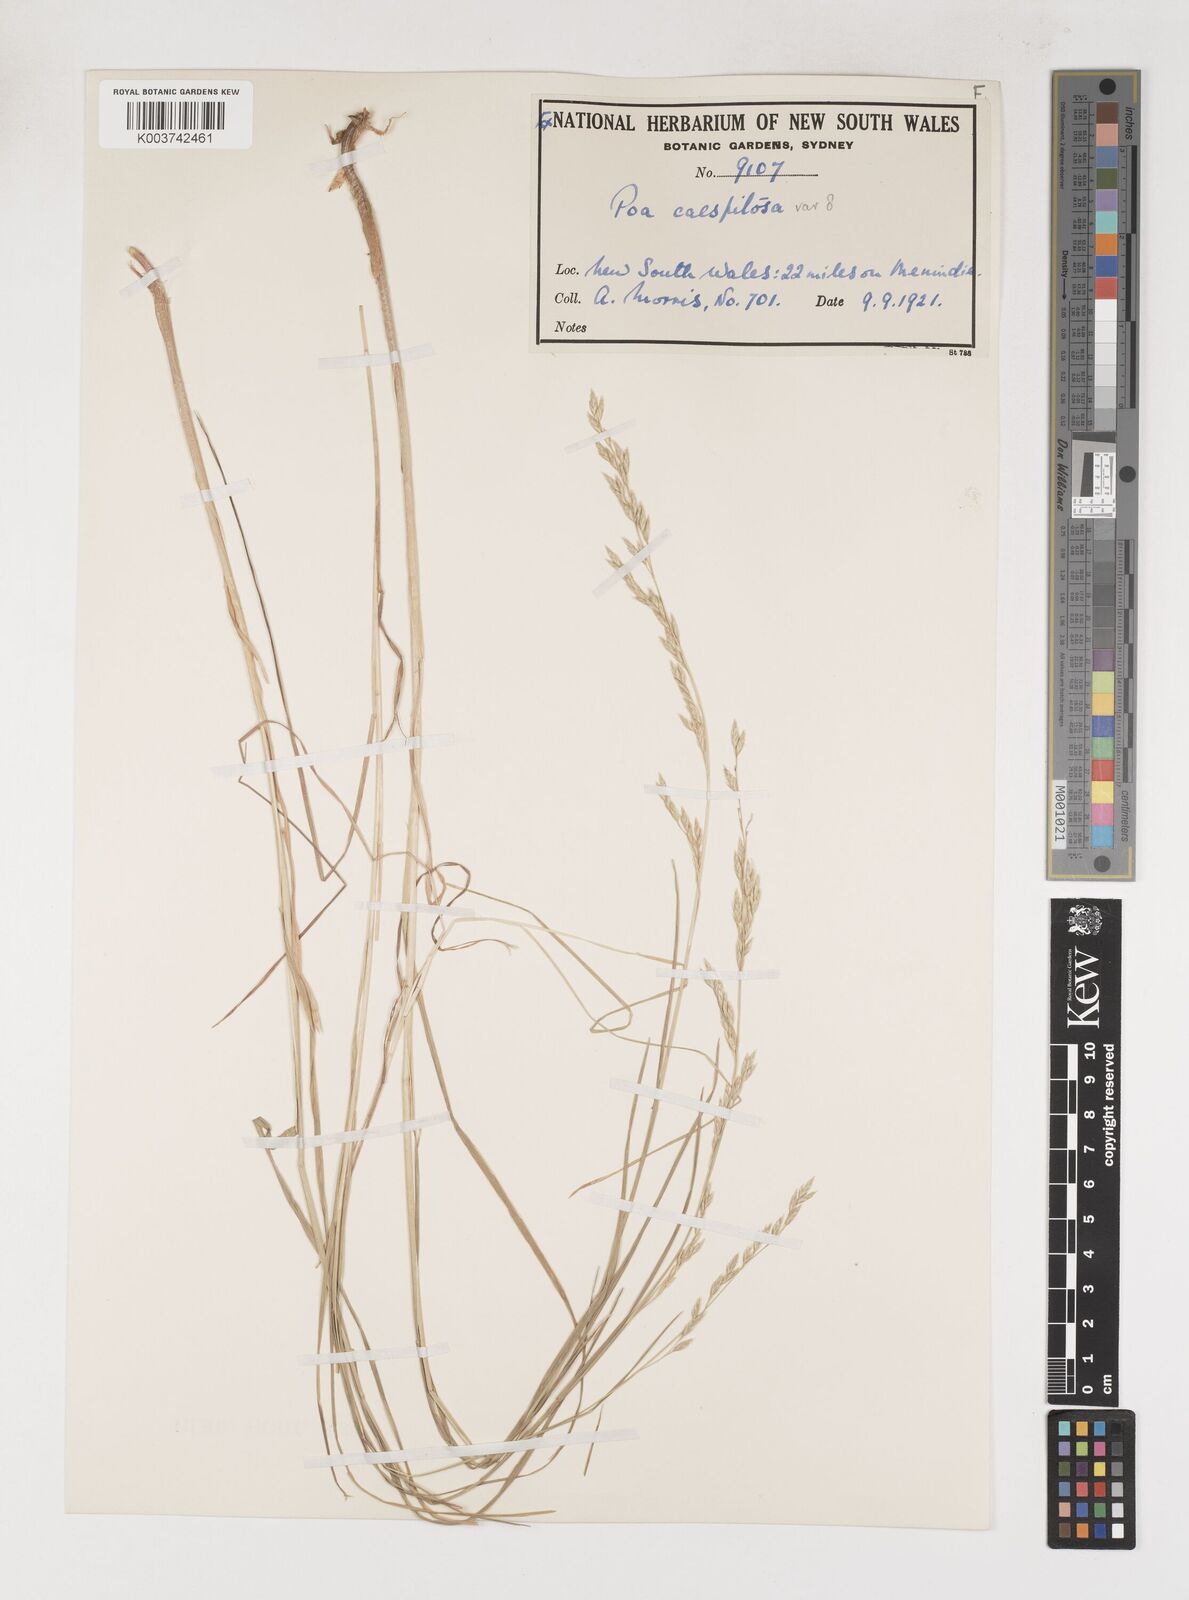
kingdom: Plantae
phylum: Tracheophyta
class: Liliopsida
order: Poales
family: Poaceae
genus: Poa
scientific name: Poa
